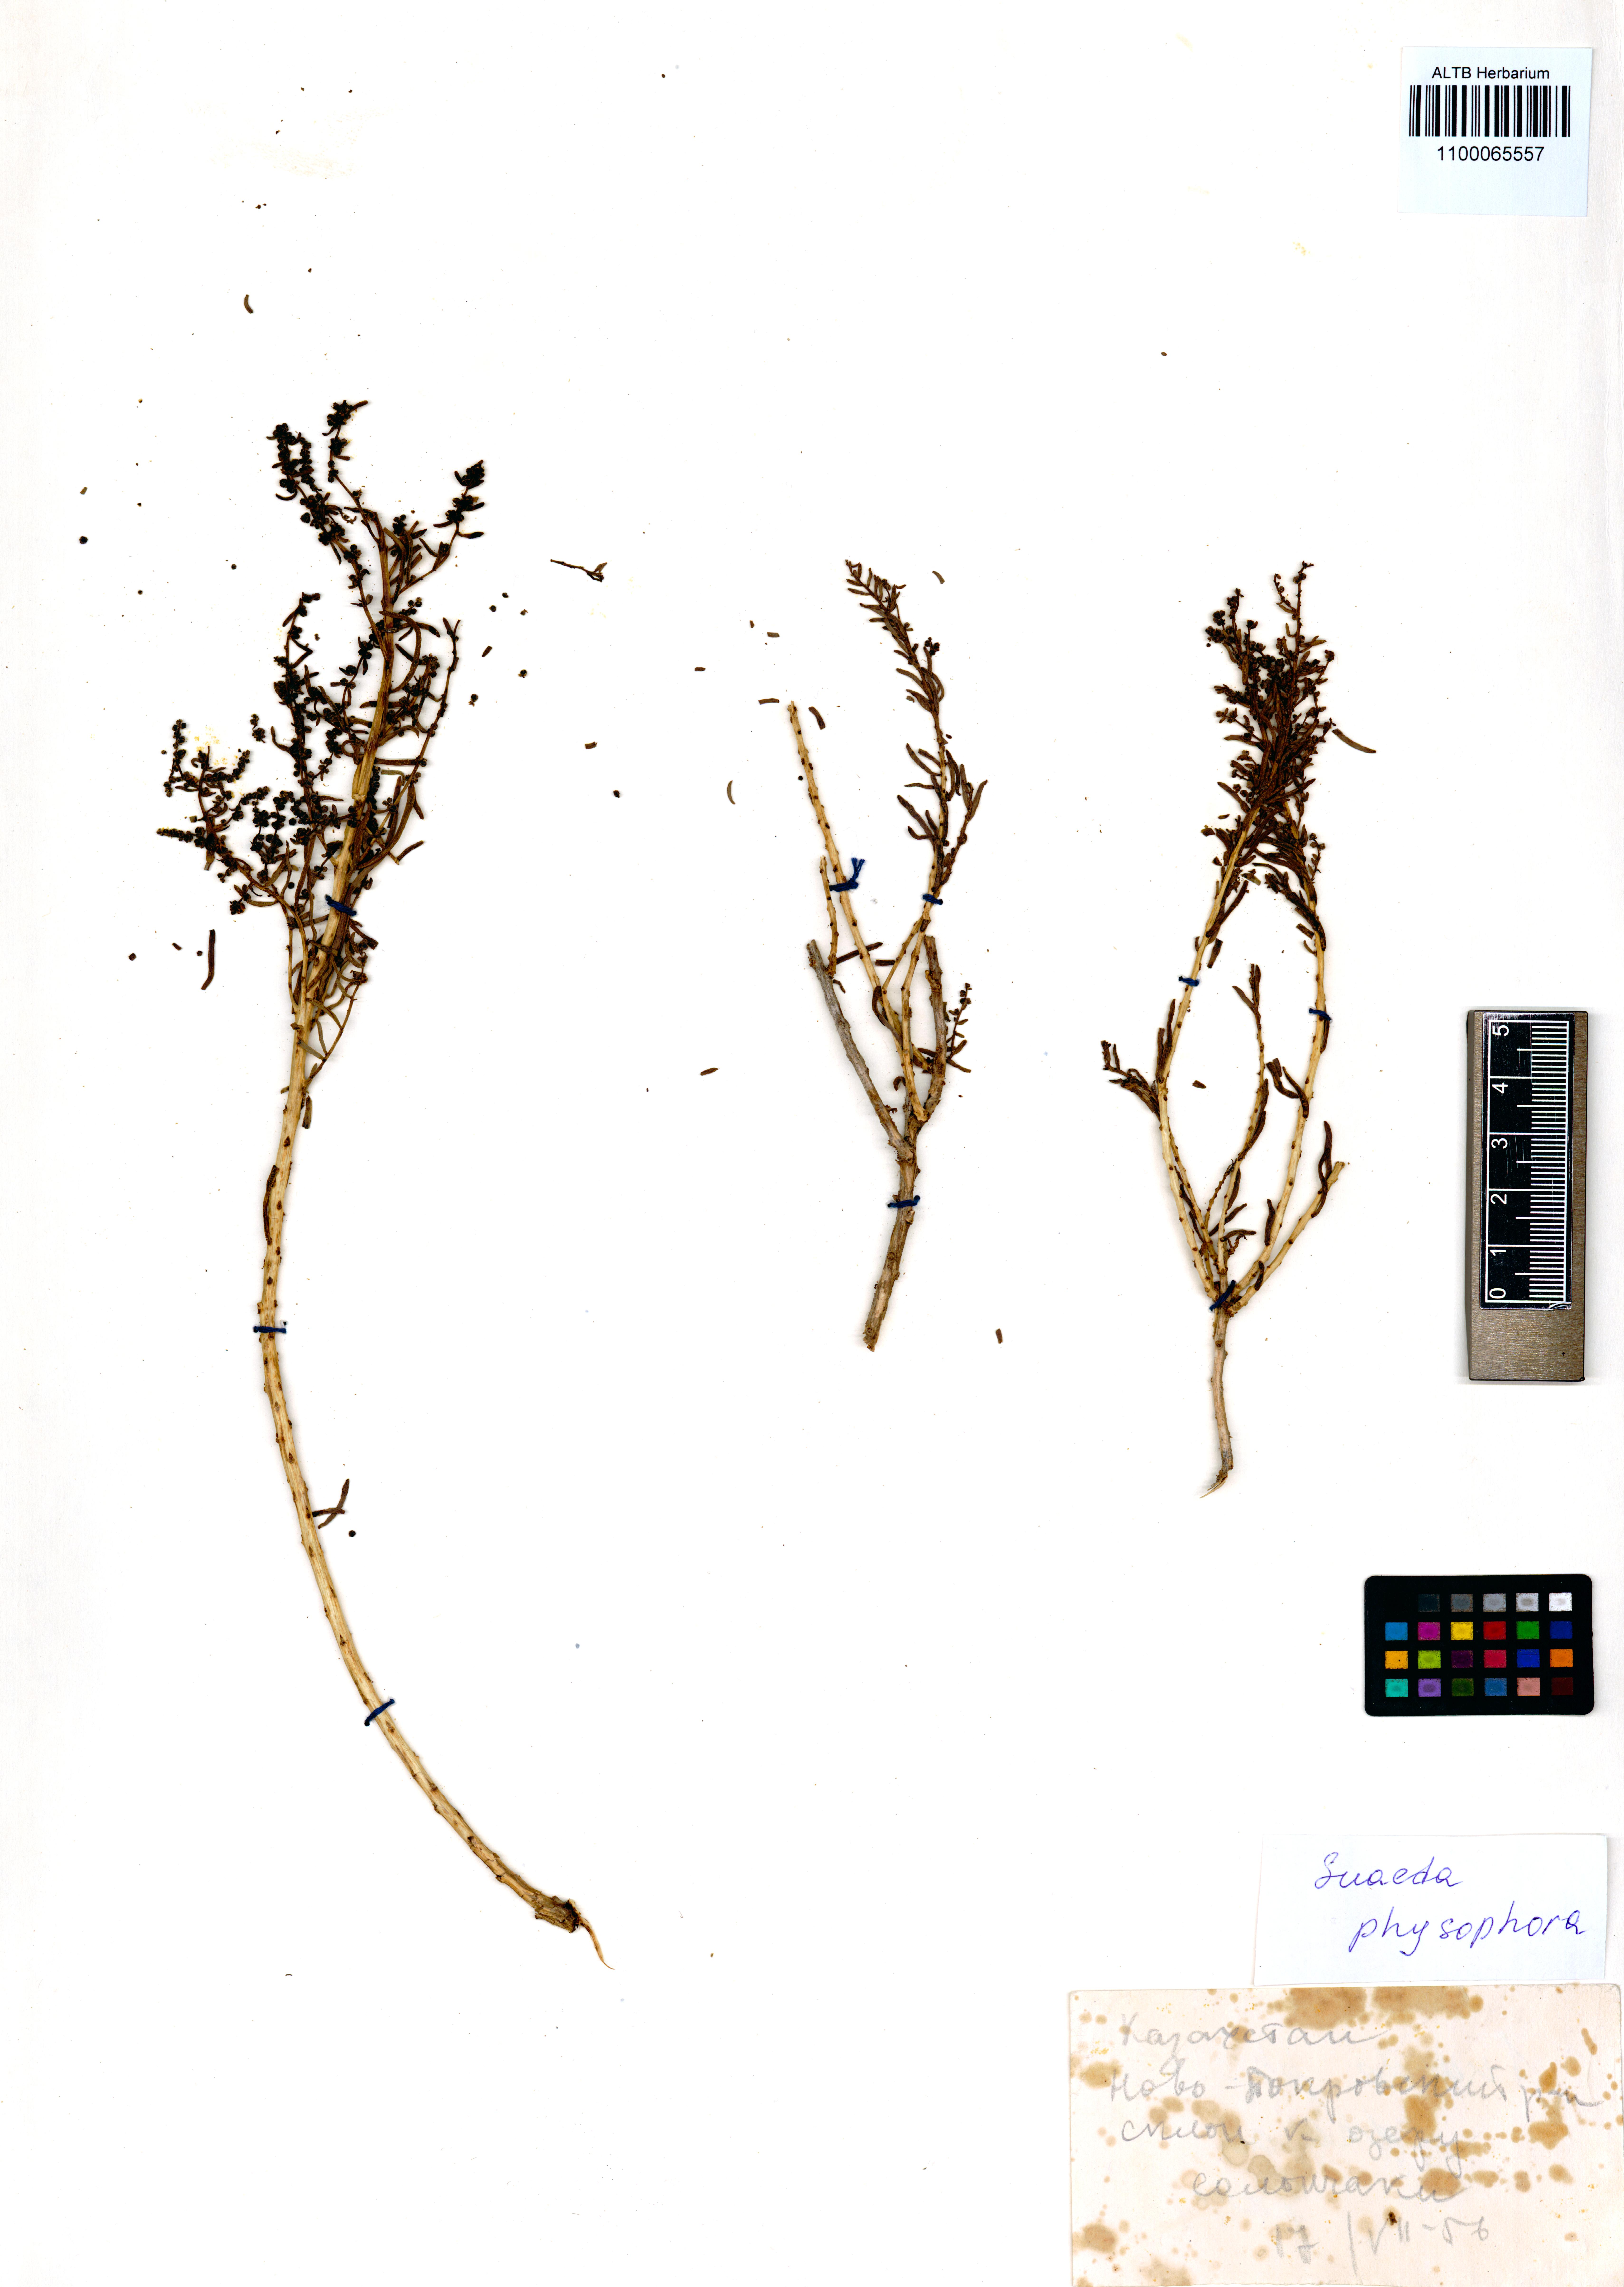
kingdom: Plantae
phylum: Tracheophyta
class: Magnoliopsida
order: Caryophyllales
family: Amaranthaceae
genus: Suaeda
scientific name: Suaeda physophora
